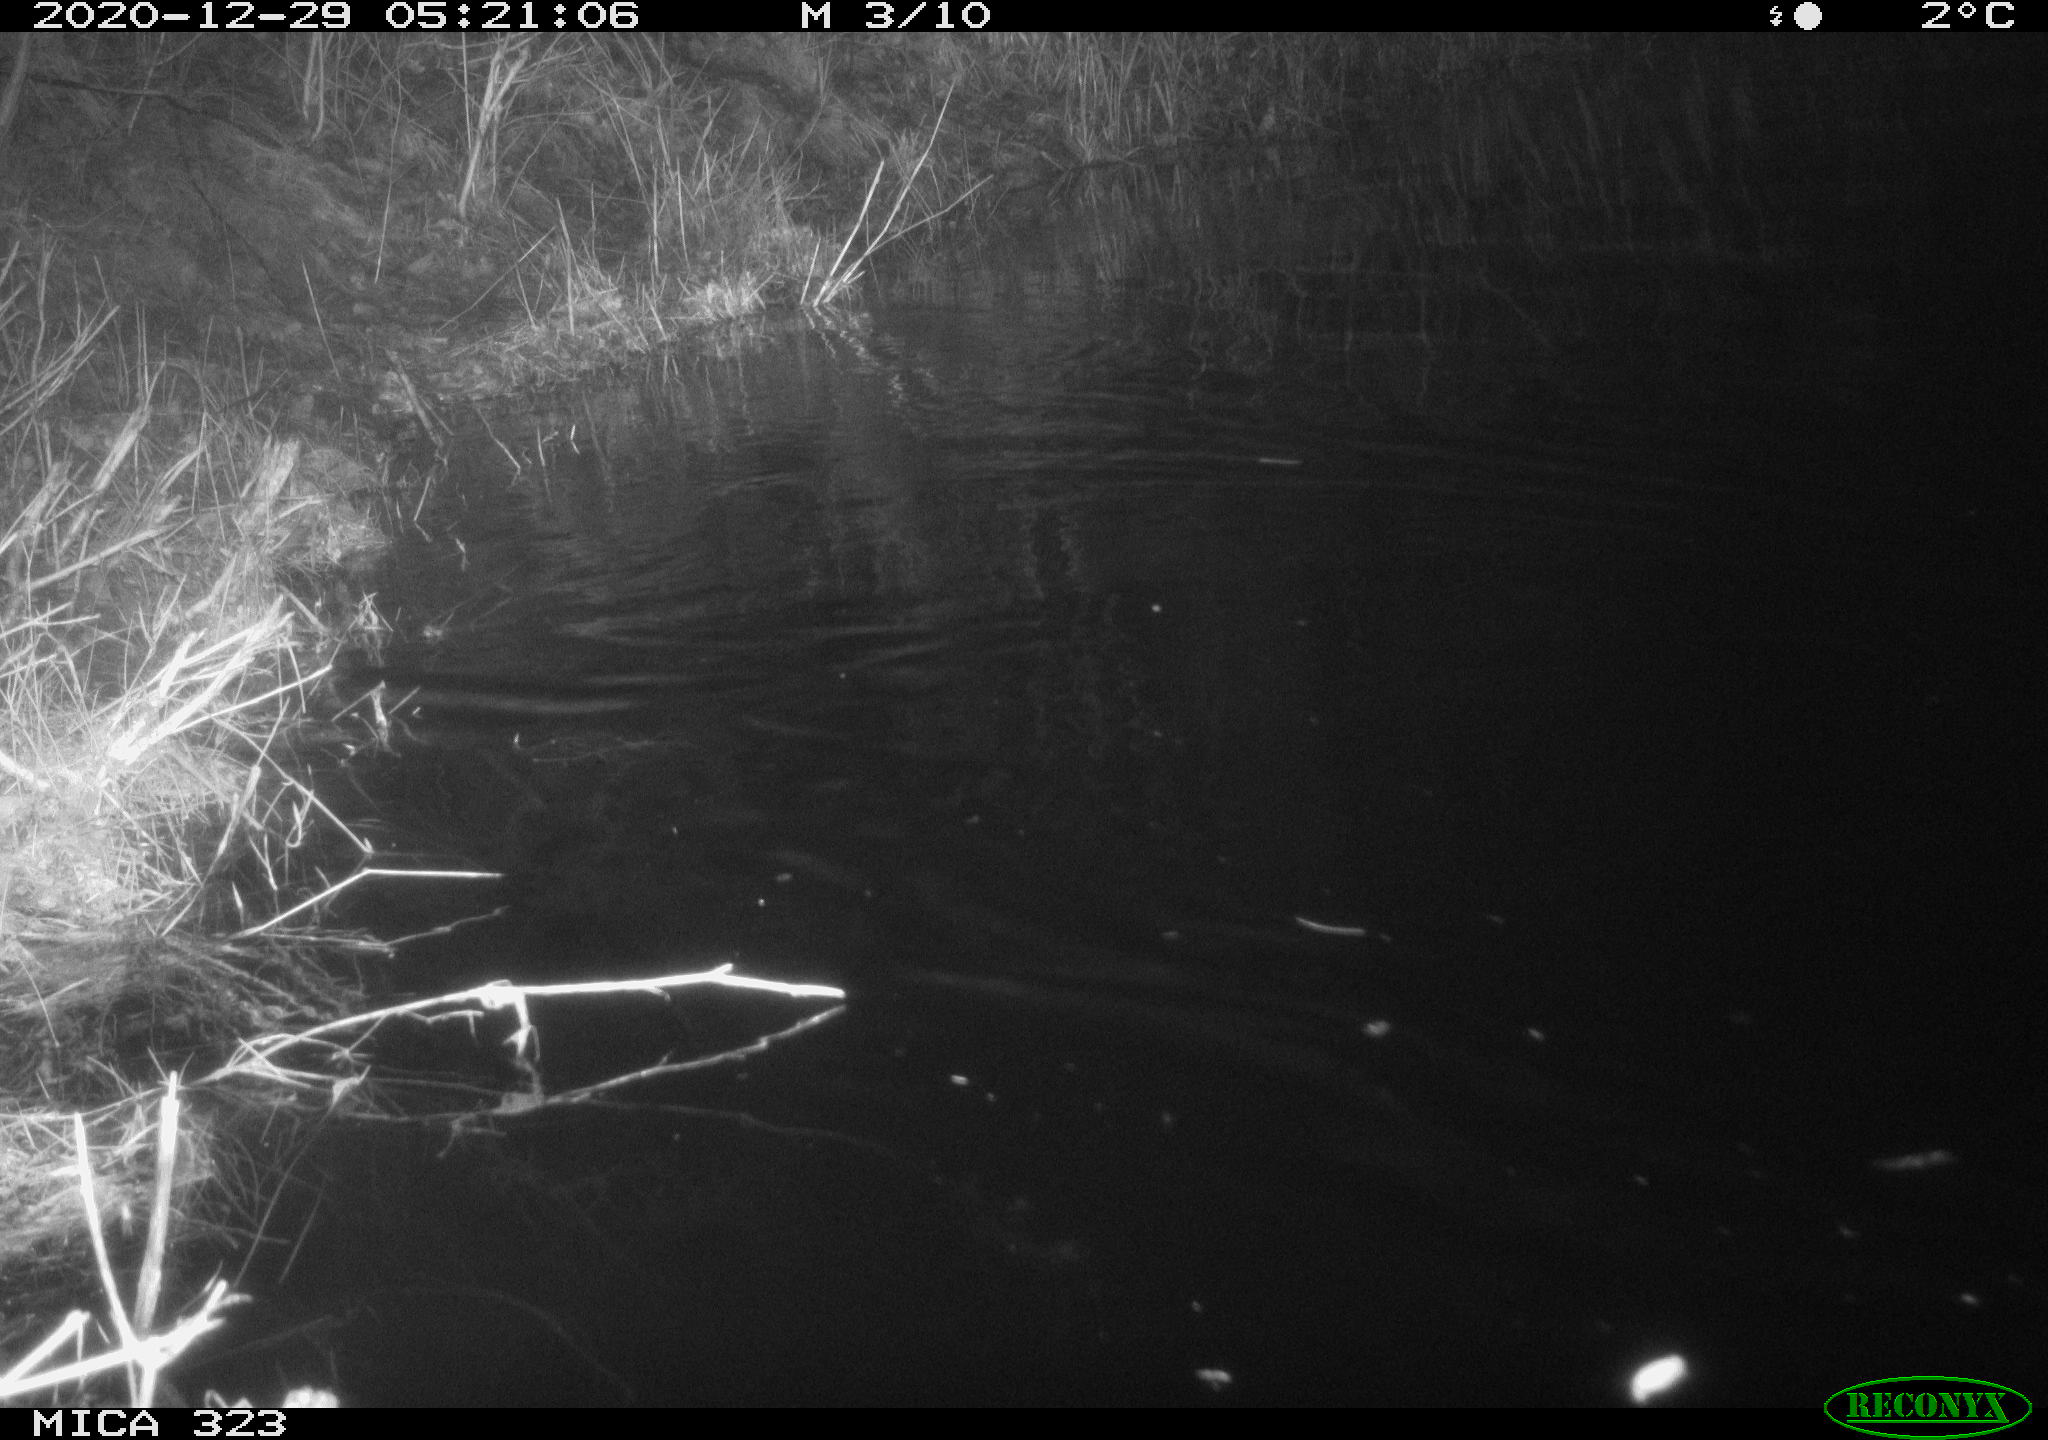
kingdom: Animalia
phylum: Chordata
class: Mammalia
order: Rodentia
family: Myocastoridae
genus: Myocastor
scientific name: Myocastor coypus
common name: Coypu
